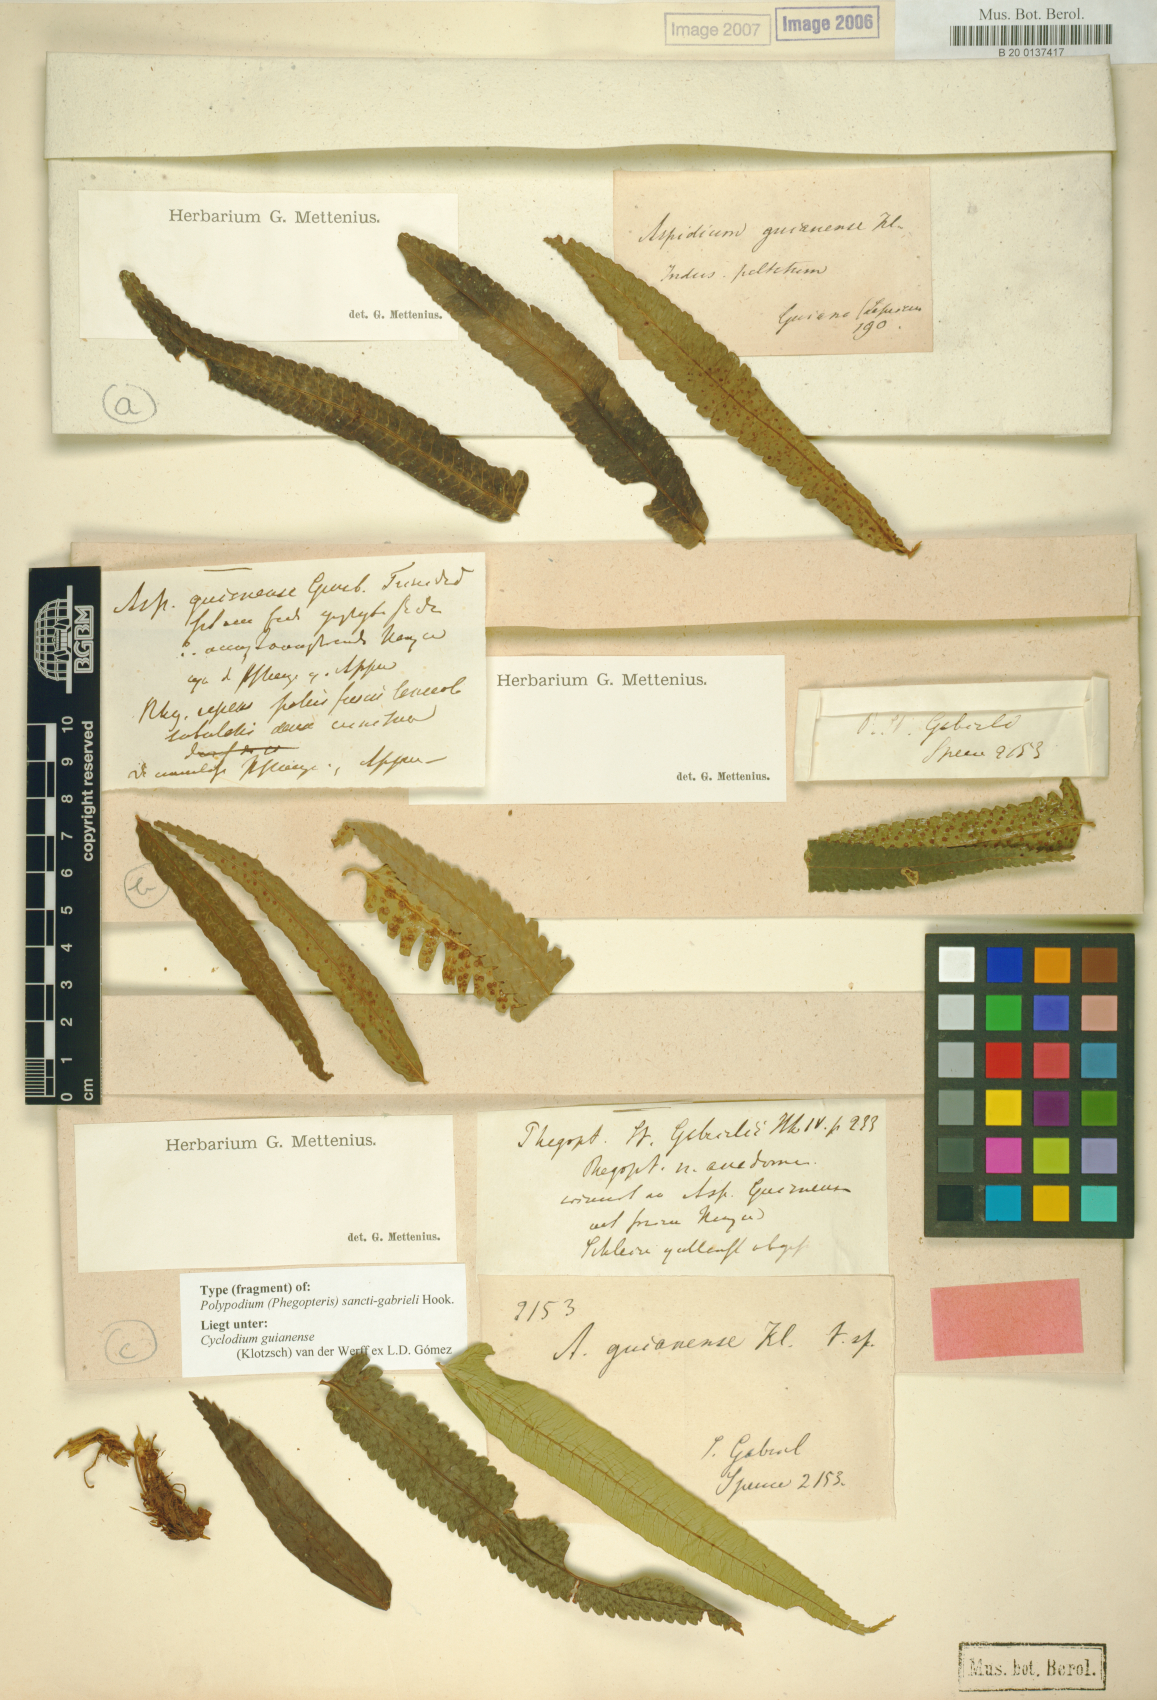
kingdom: Plantae
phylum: Tracheophyta
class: Polypodiopsida
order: Polypodiales
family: Dryopteridaceae
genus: Cyclodium
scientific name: Cyclodium guianense
